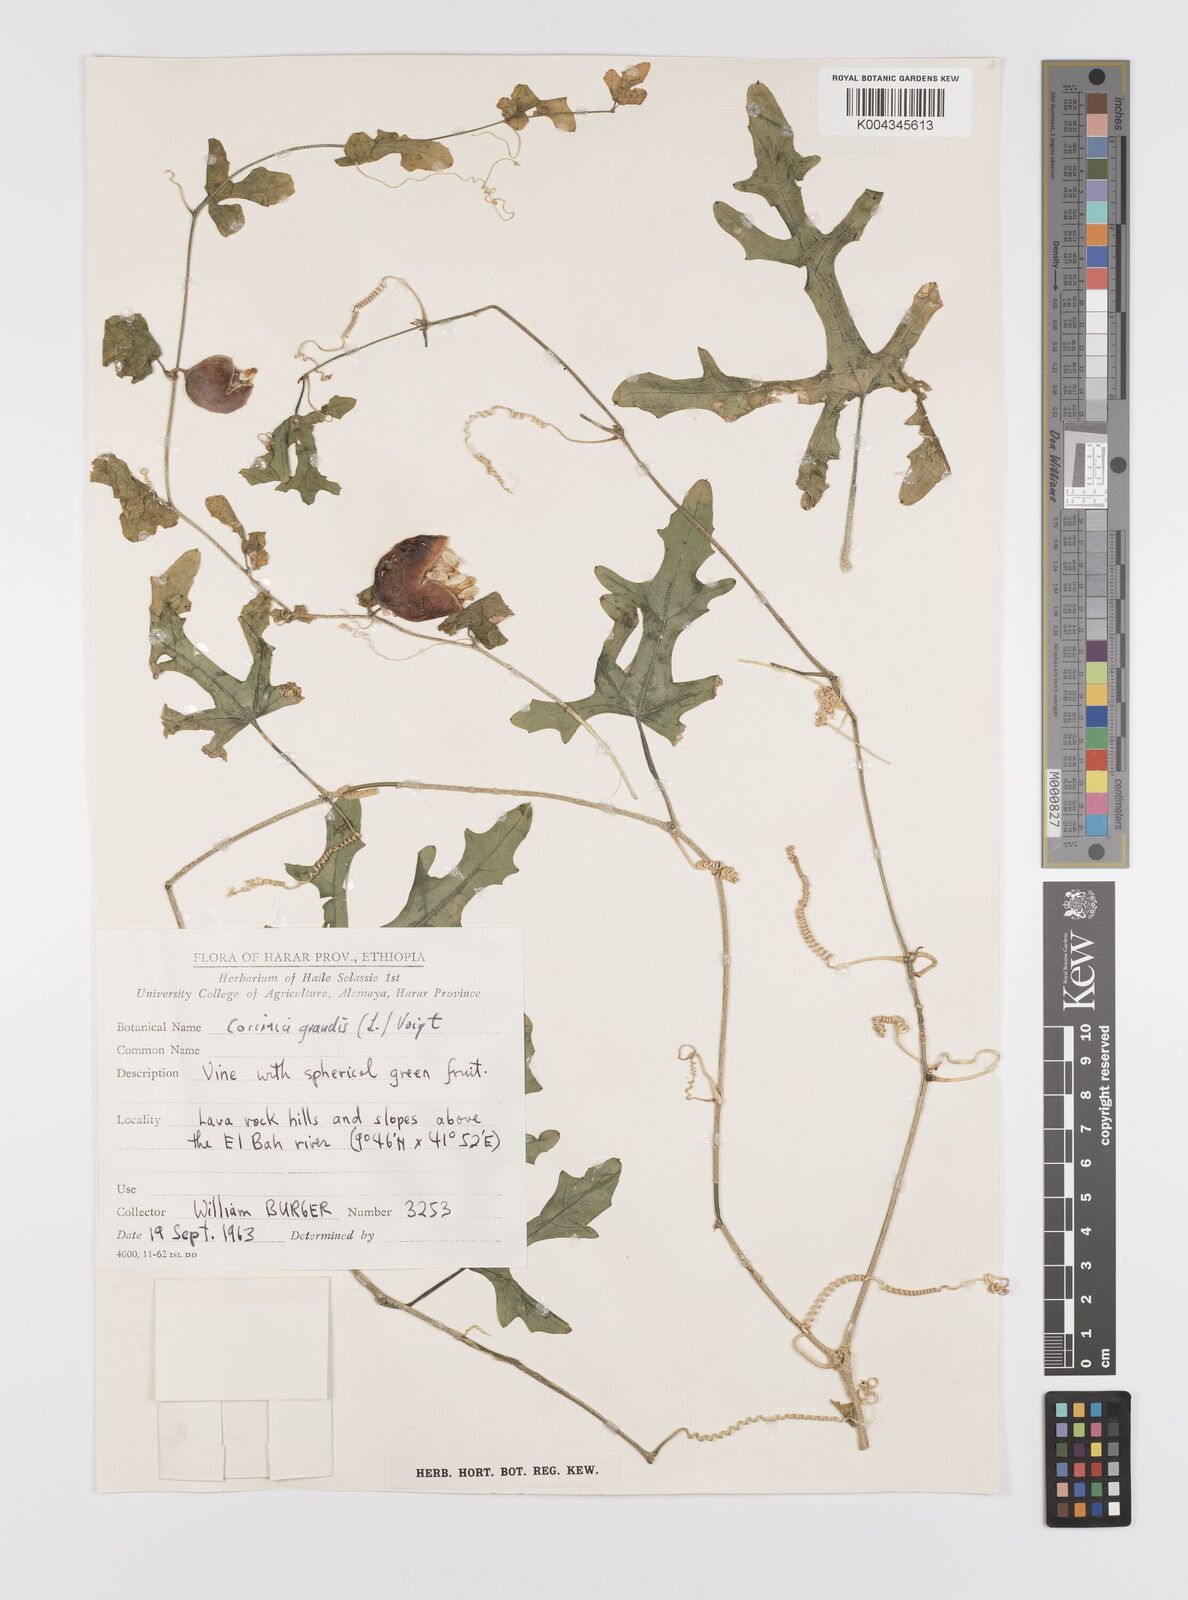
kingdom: Plantae
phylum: Tracheophyta
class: Magnoliopsida
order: Cucurbitales
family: Cucurbitaceae
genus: Coccinia
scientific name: Coccinia grandis
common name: Ivy gourd
